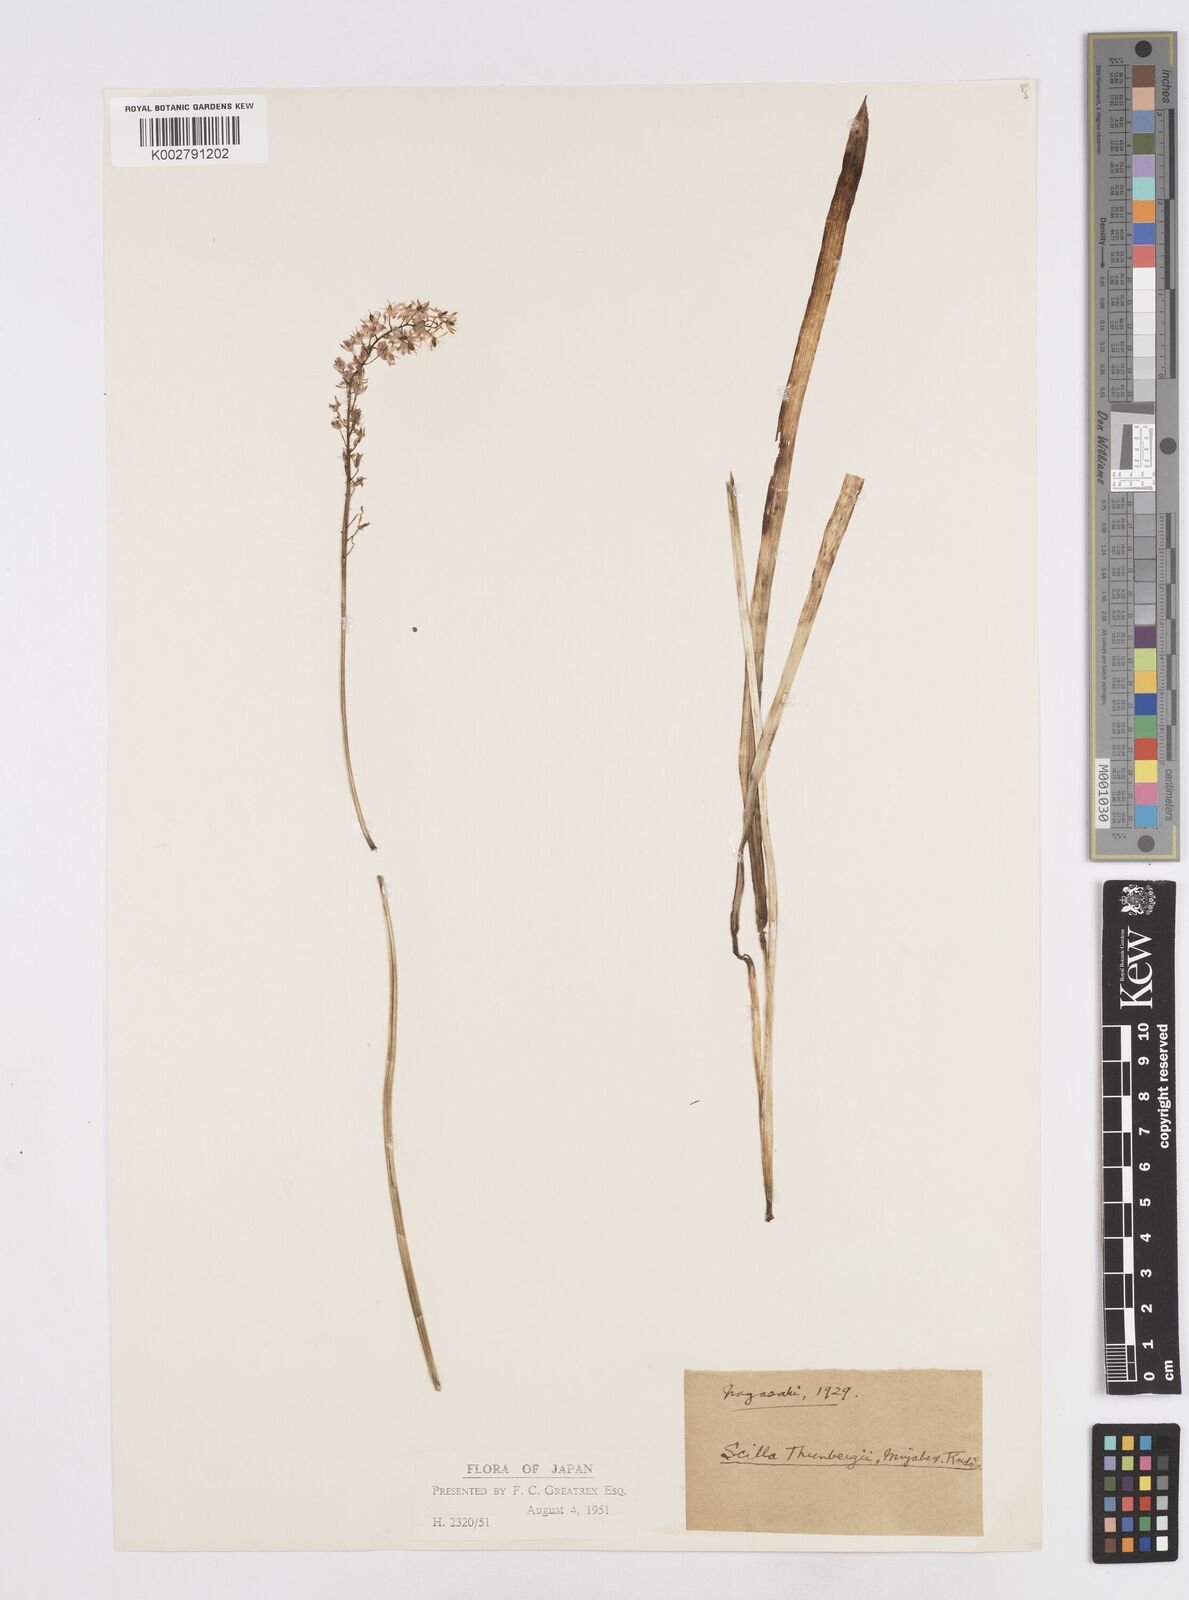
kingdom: Plantae
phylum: Tracheophyta
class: Liliopsida
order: Liliales
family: Melanthiaceae
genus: Helonias
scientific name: Helonias breviscapa
